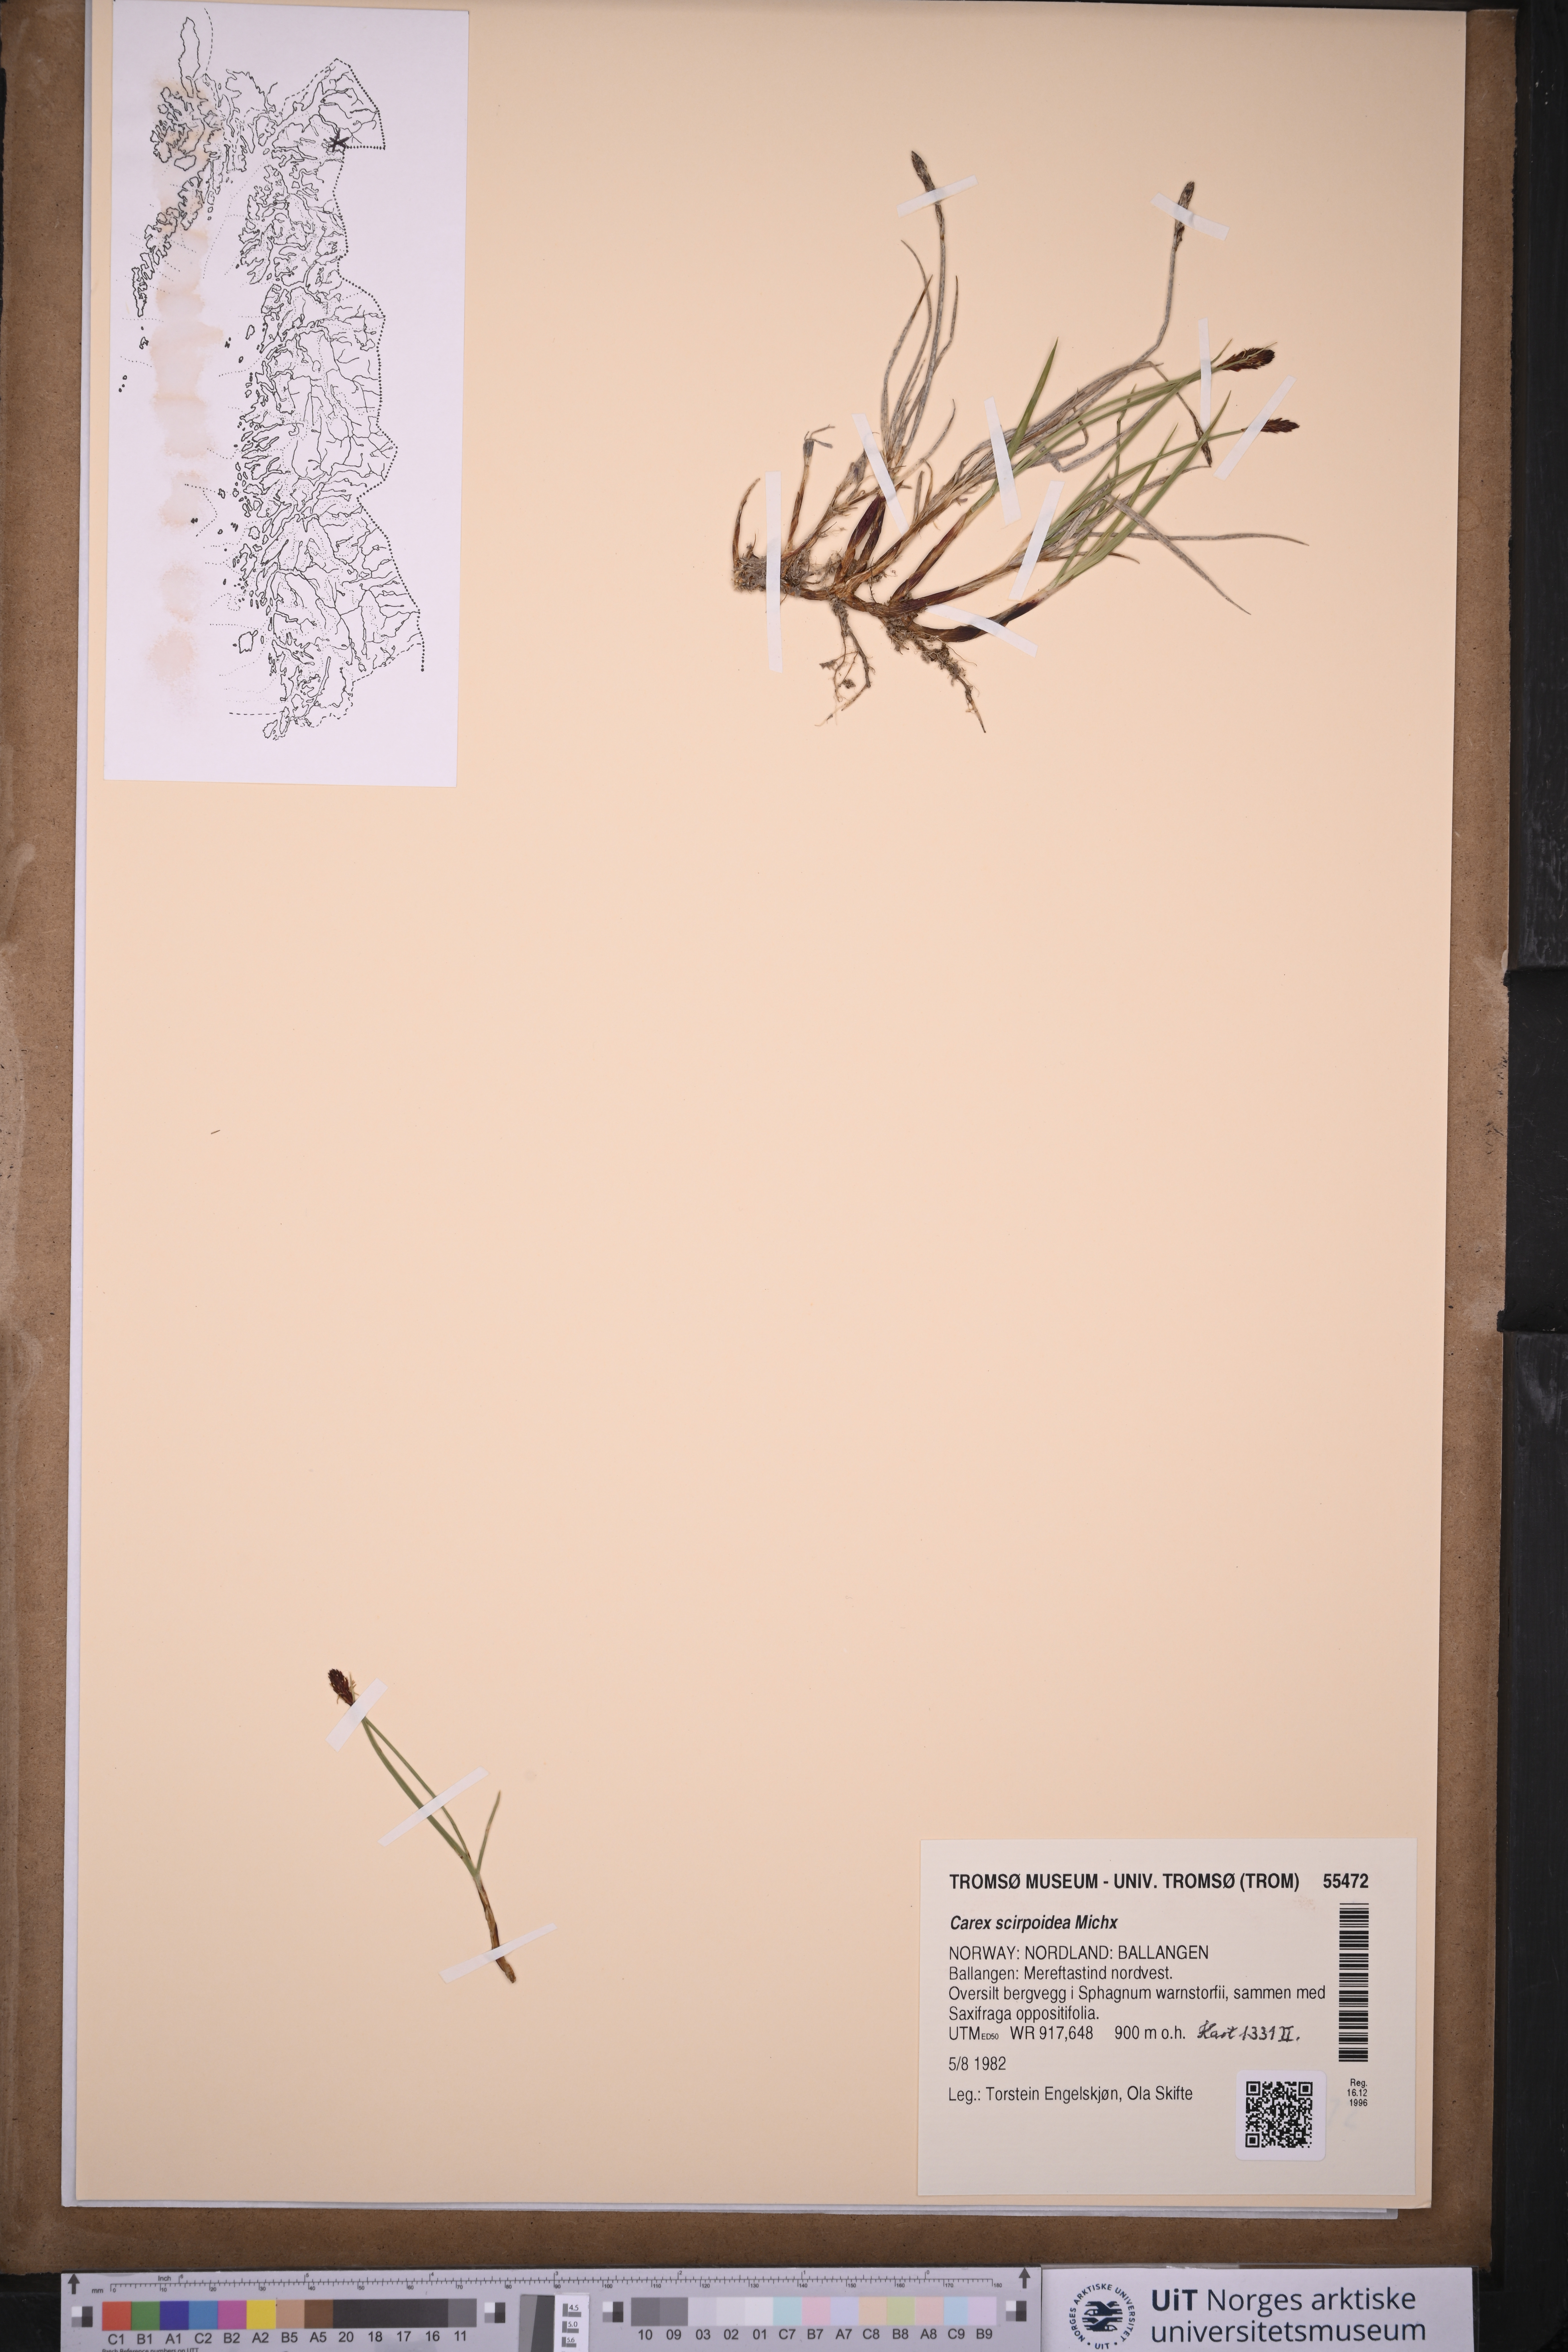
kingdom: Plantae
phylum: Tracheophyta
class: Liliopsida
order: Poales
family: Cyperaceae
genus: Carex
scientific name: Carex scirpoidea
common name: Canada single-spike sedge
